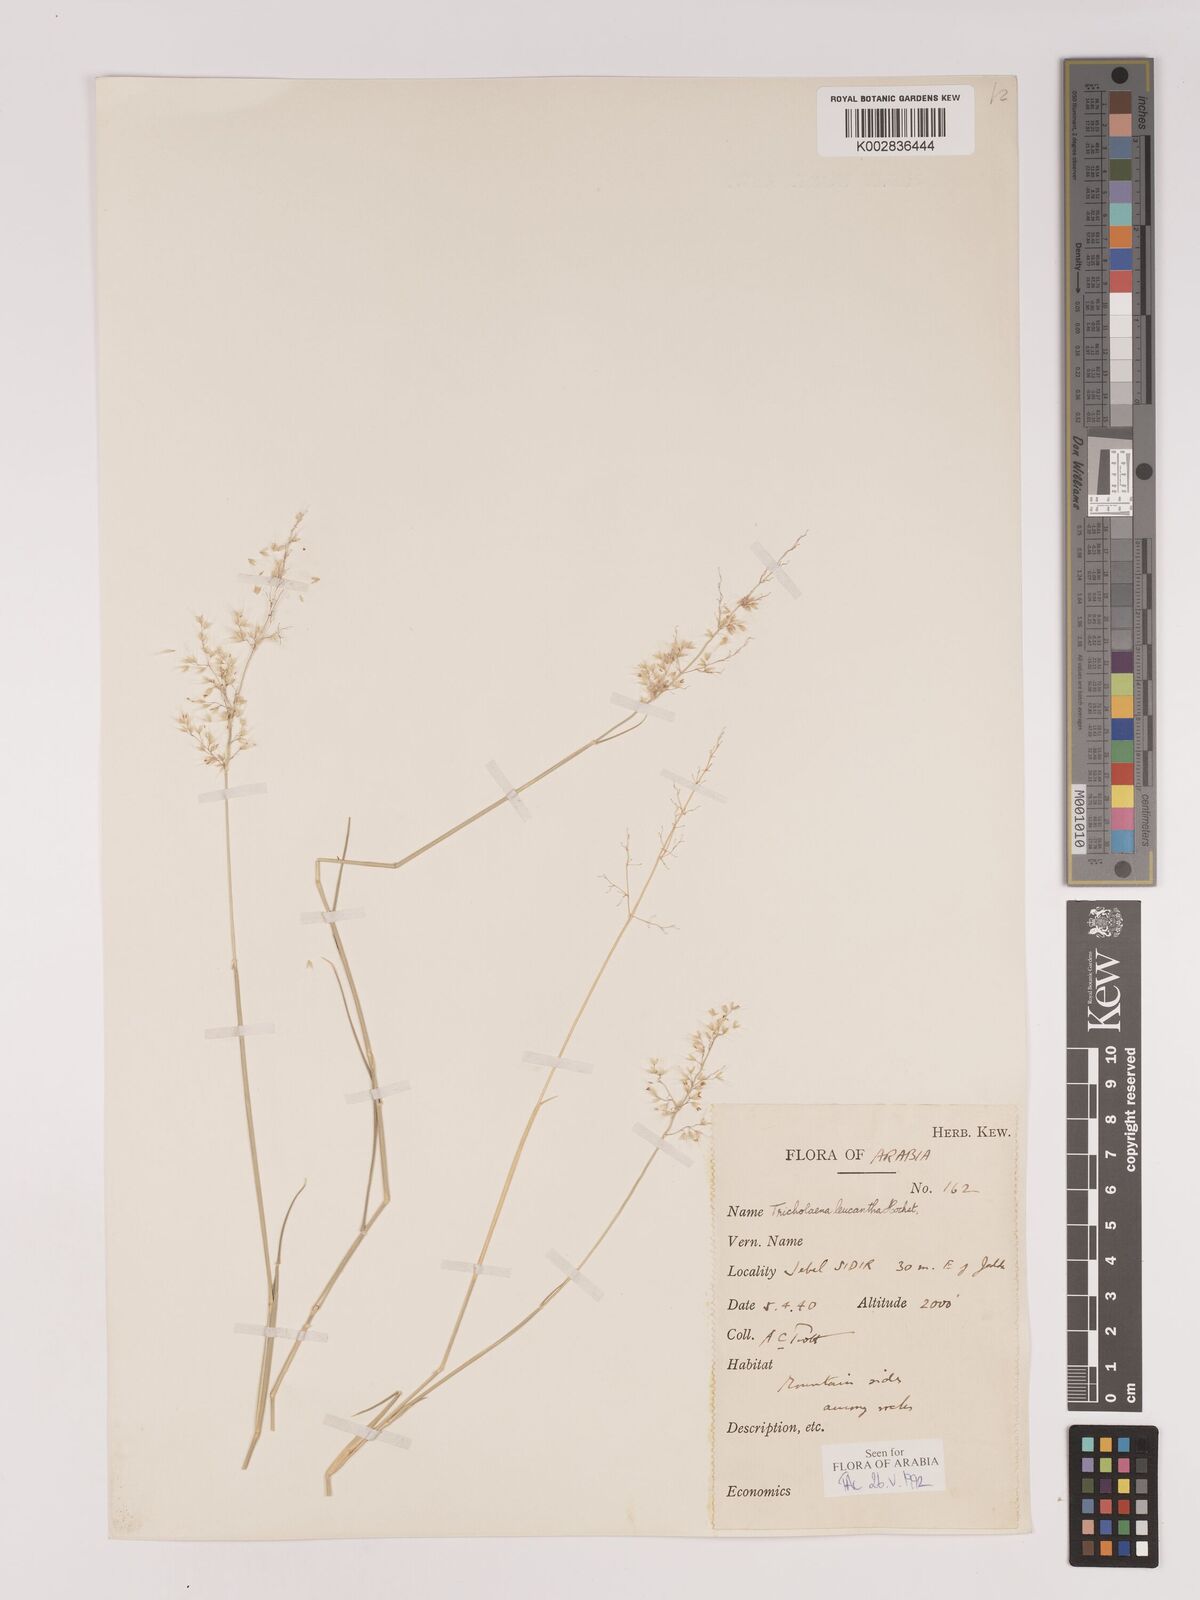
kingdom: Plantae
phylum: Tracheophyta
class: Liliopsida
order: Poales
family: Poaceae
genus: Tricholaena
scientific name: Tricholaena teneriffae
